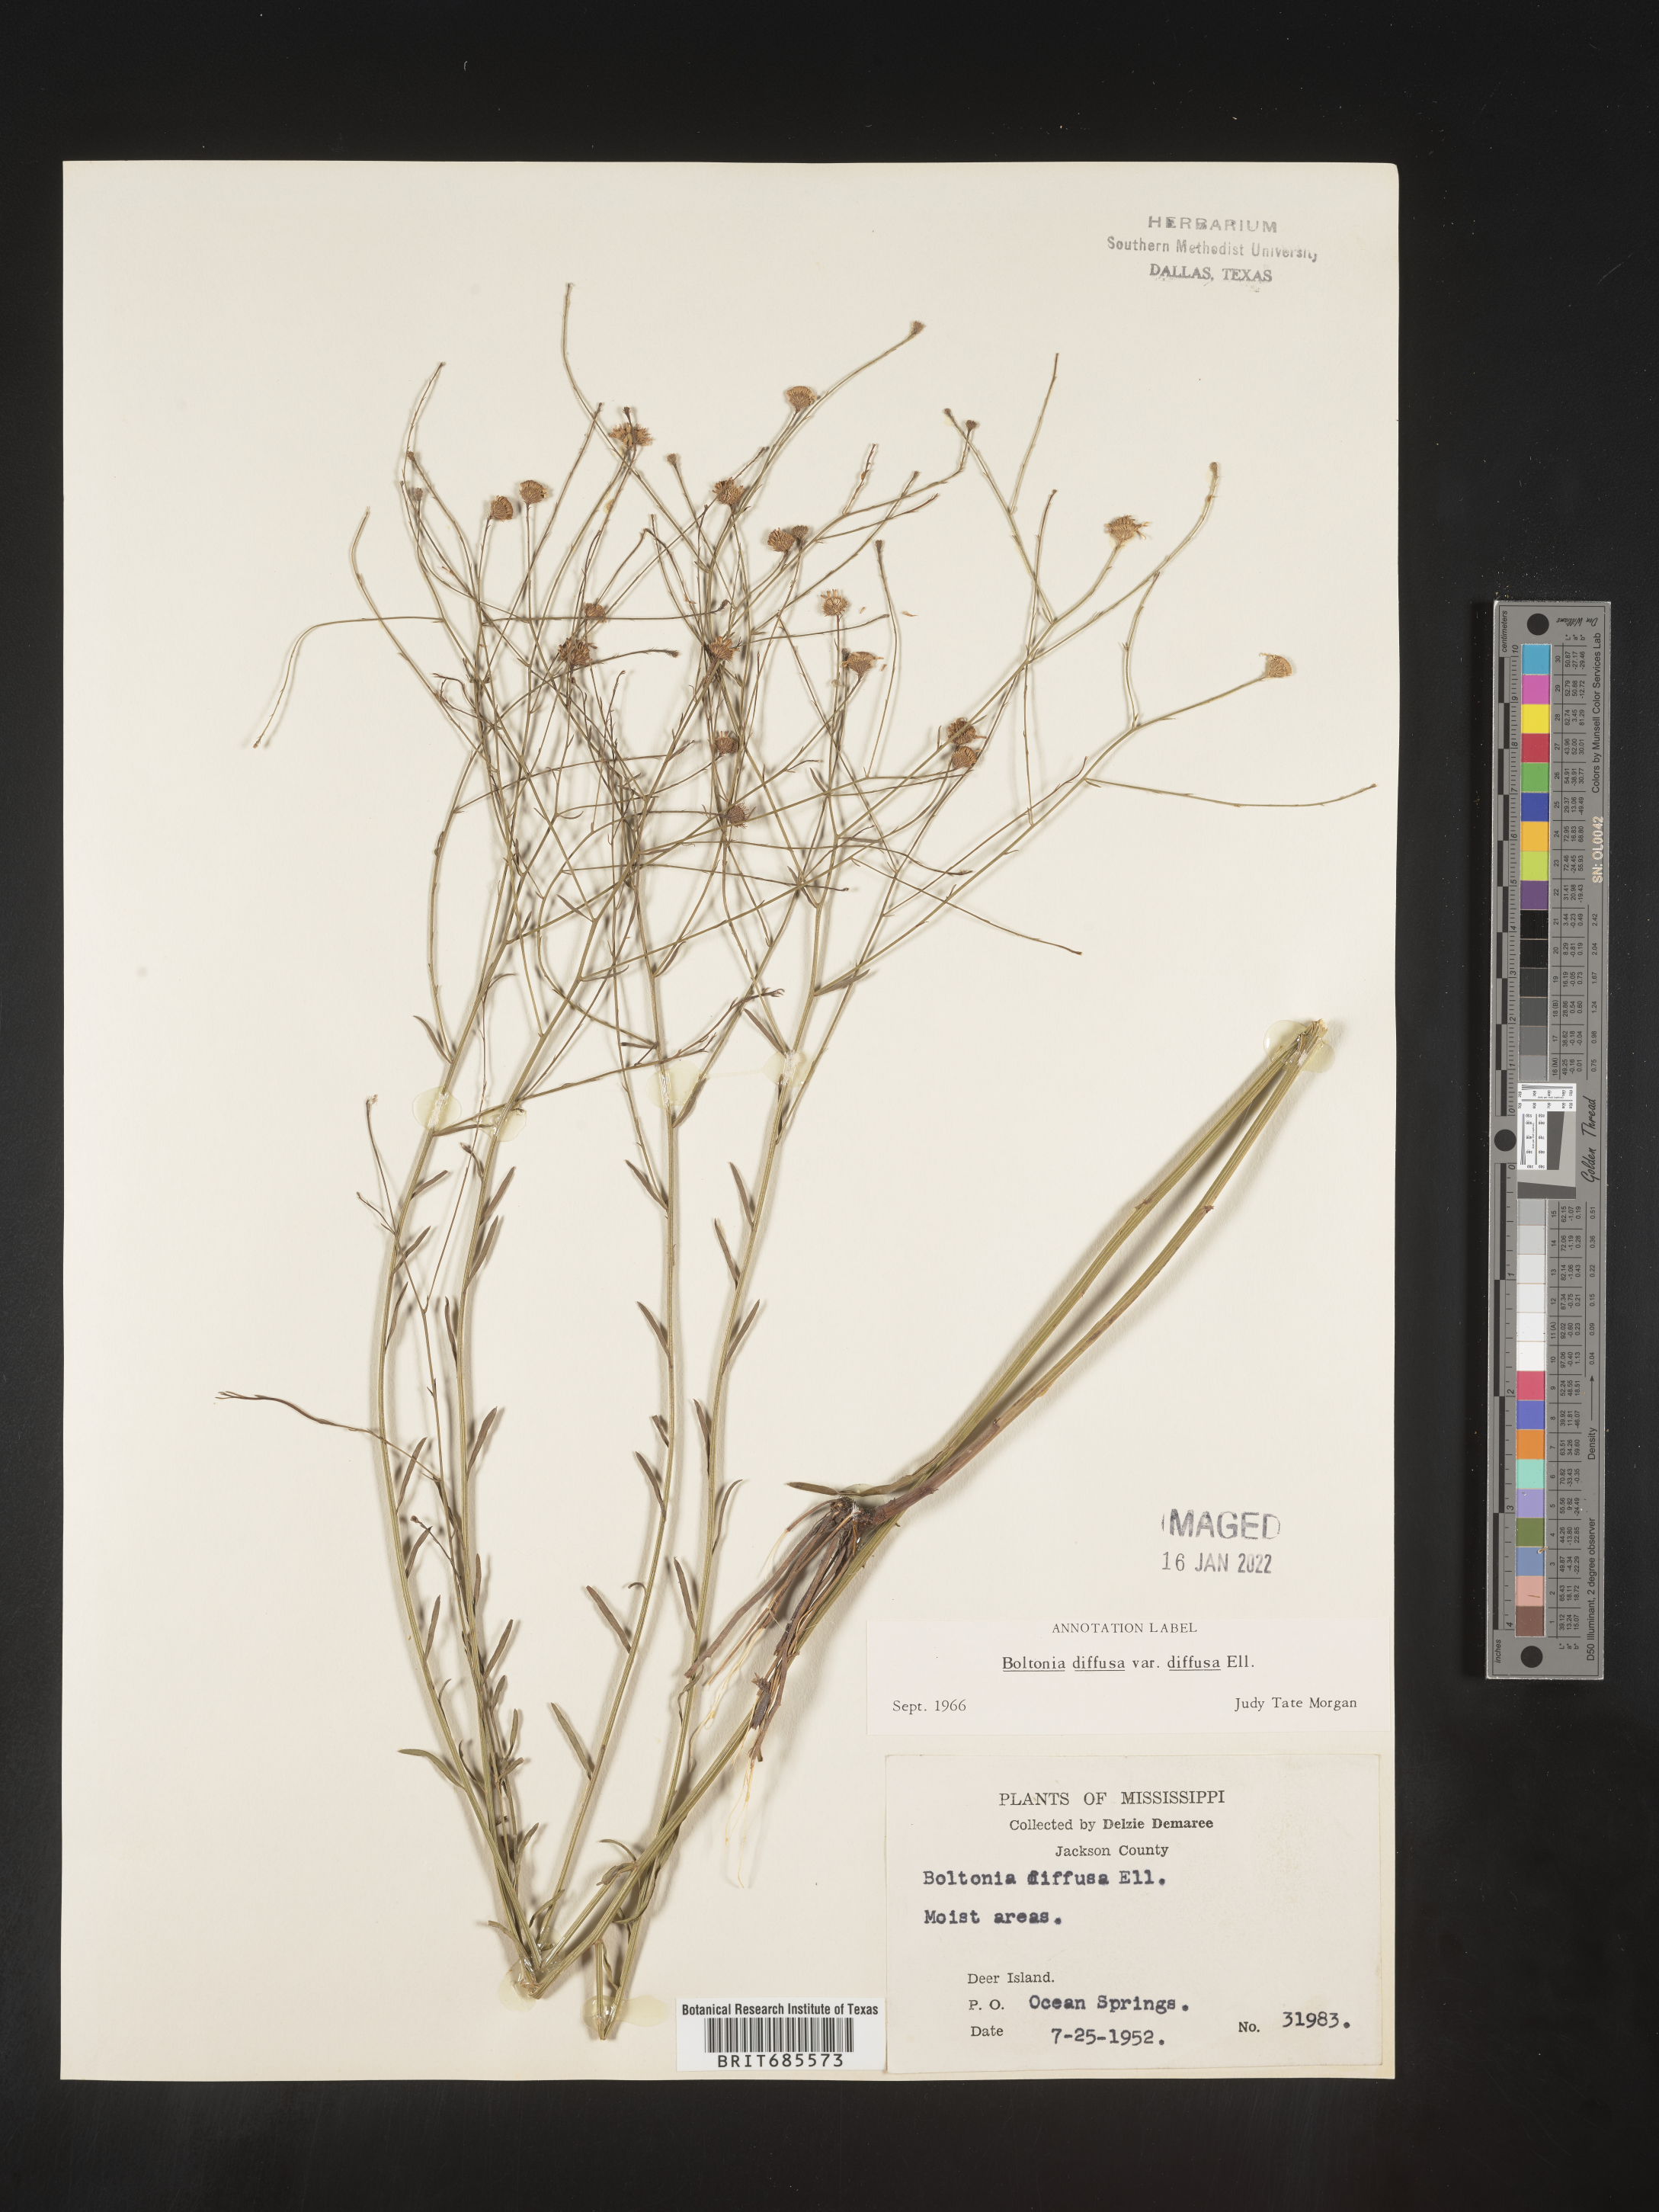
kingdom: Plantae
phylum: Tracheophyta
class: Magnoliopsida
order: Asterales
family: Asteraceae
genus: Boltonia
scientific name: Boltonia diffusa
